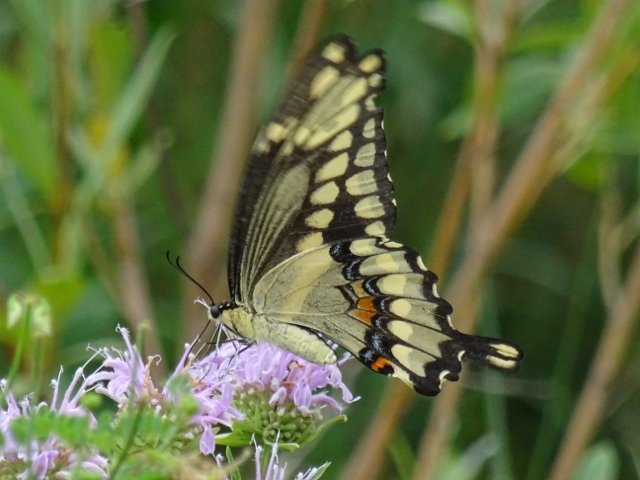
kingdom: Animalia
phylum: Arthropoda
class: Insecta
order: Lepidoptera
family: Papilionidae
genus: Papilio
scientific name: Papilio cresphontes
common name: Eastern Giant Swallowtail
